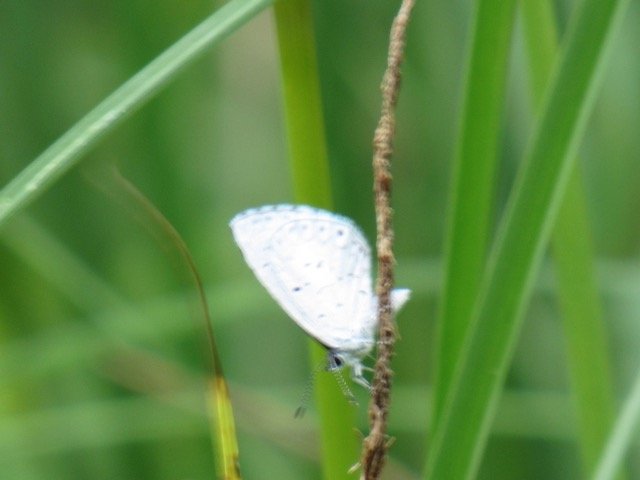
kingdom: Animalia
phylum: Arthropoda
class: Insecta
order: Lepidoptera
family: Lycaenidae
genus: Celastrina
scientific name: Celastrina
